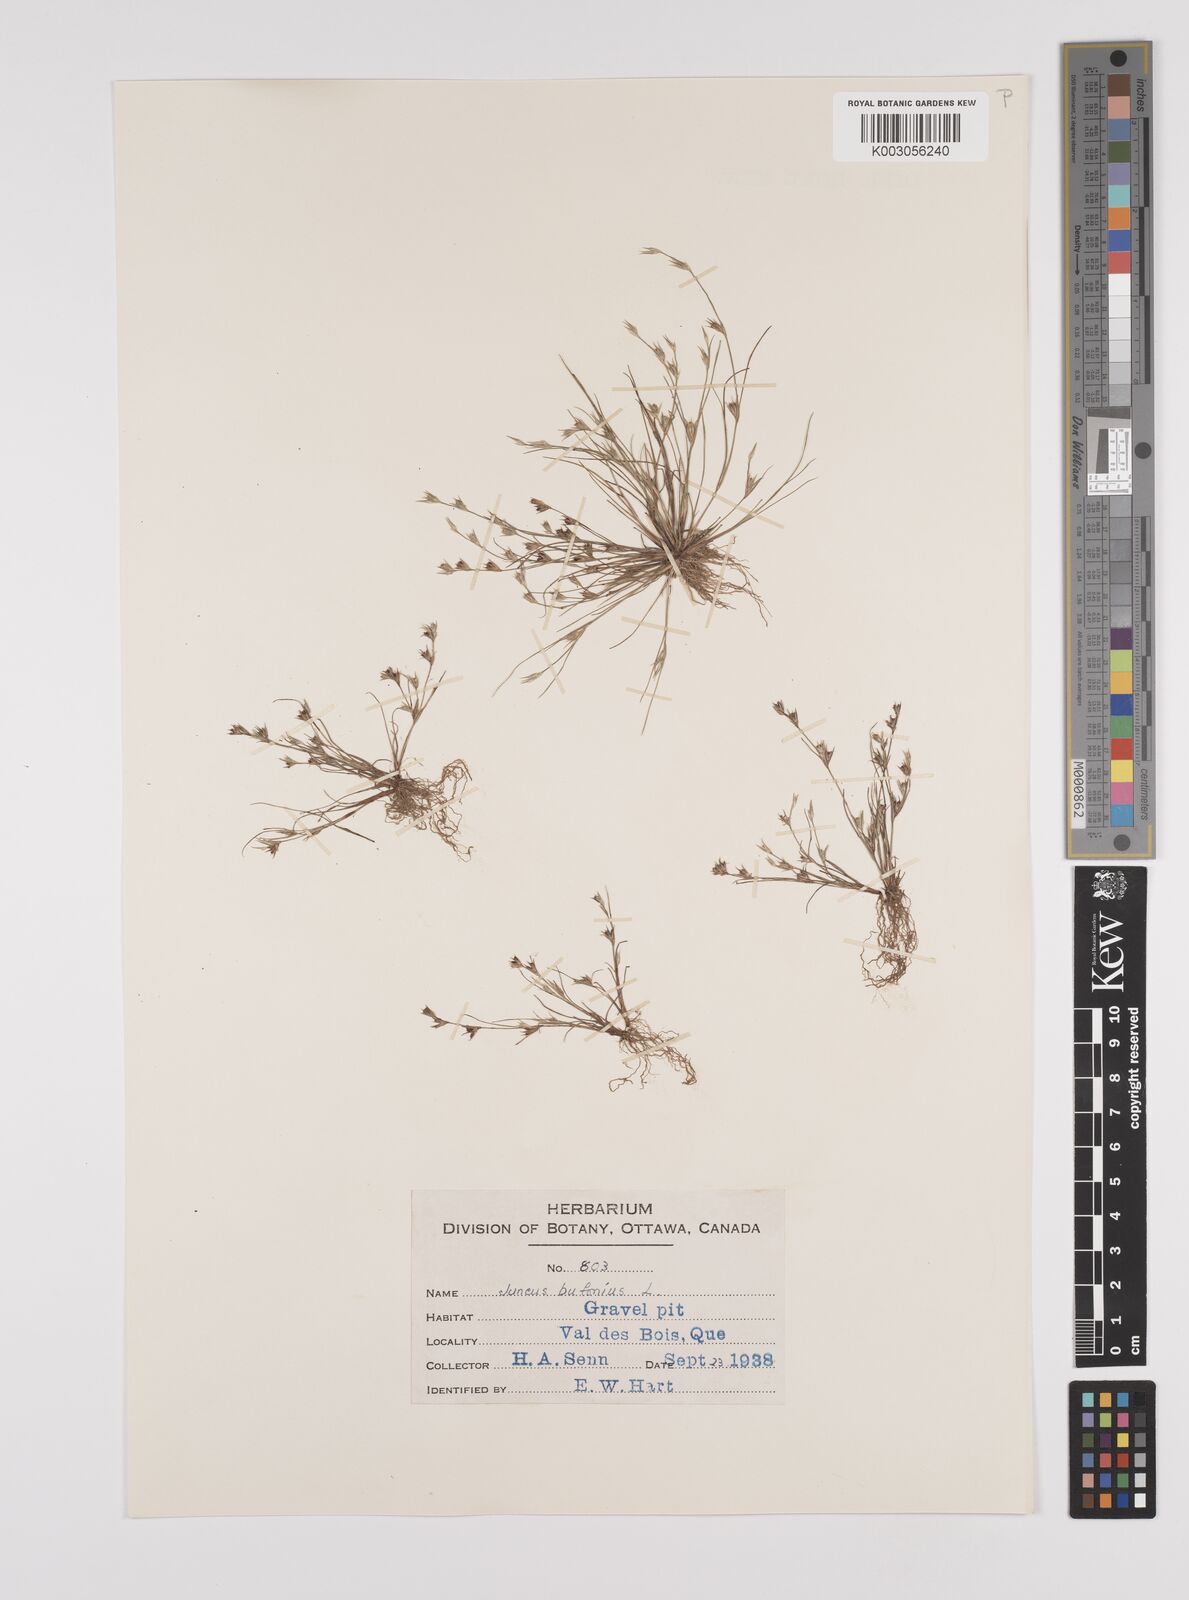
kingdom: Plantae
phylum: Tracheophyta
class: Liliopsida
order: Poales
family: Juncaceae
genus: Juncus
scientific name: Juncus bufonius
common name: Toad rush
